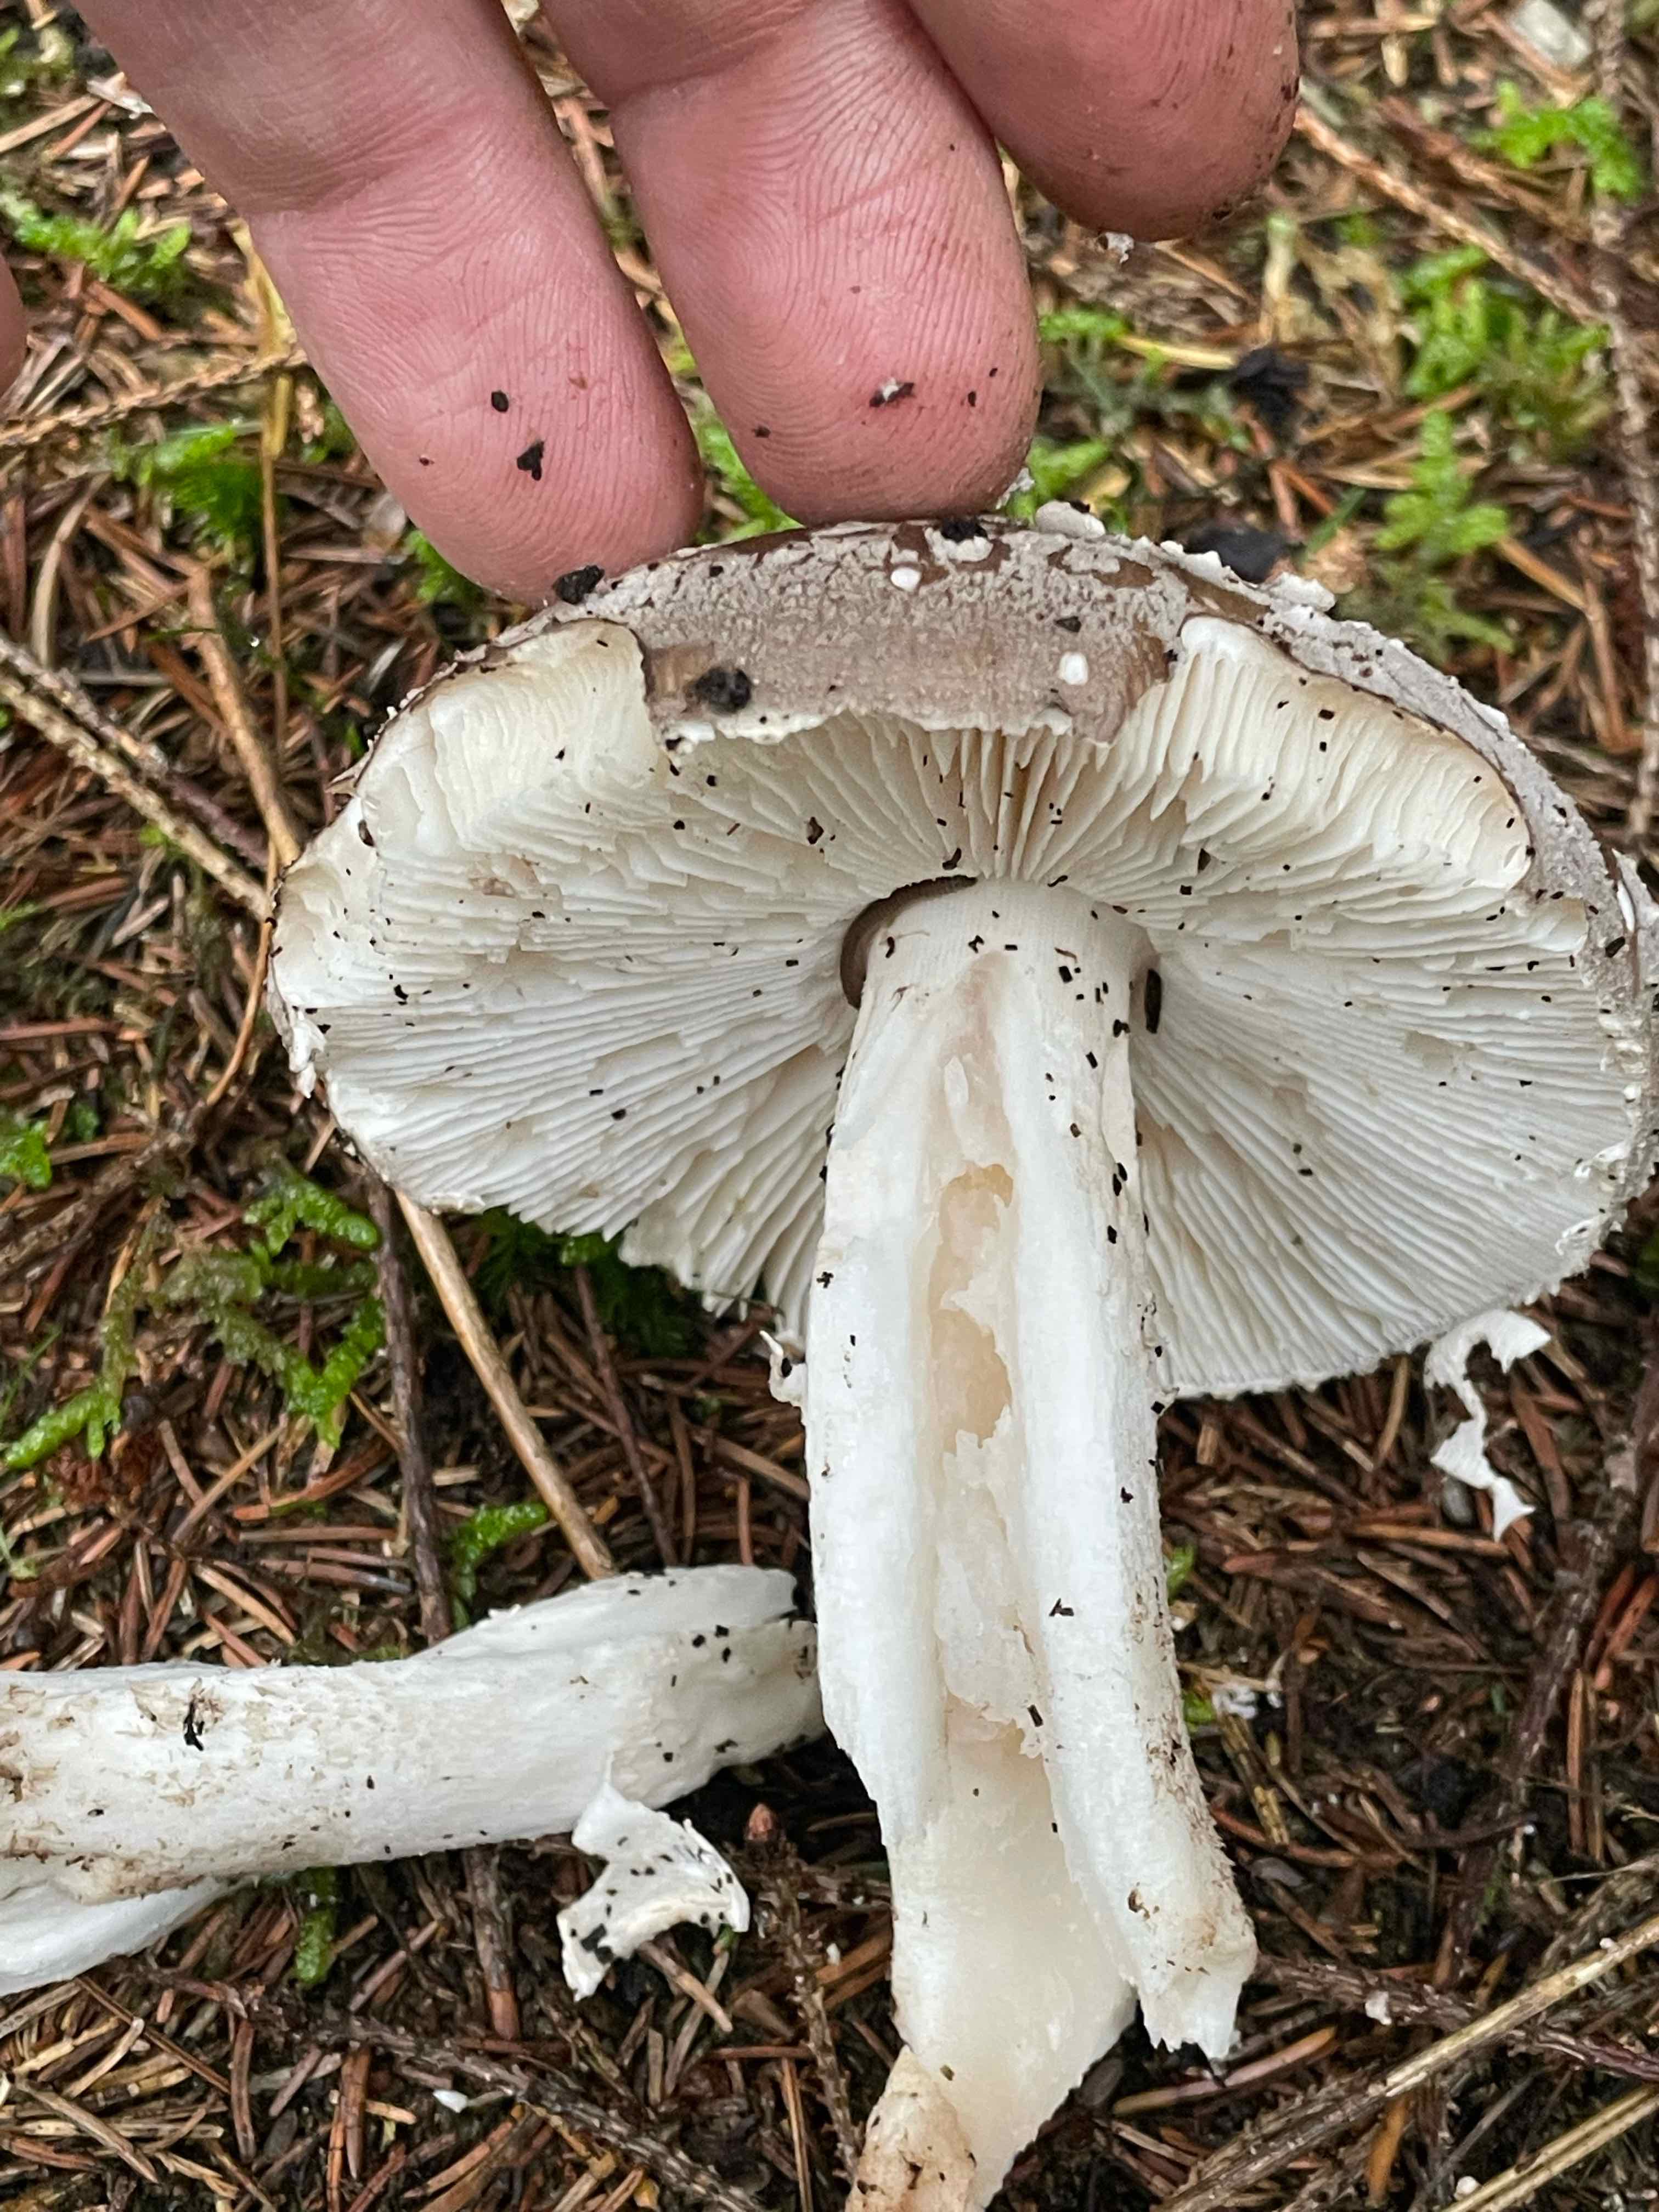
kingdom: Fungi
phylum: Basidiomycota
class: Agaricomycetes
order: Agaricales
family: Amanitaceae
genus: Amanita
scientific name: Amanita
